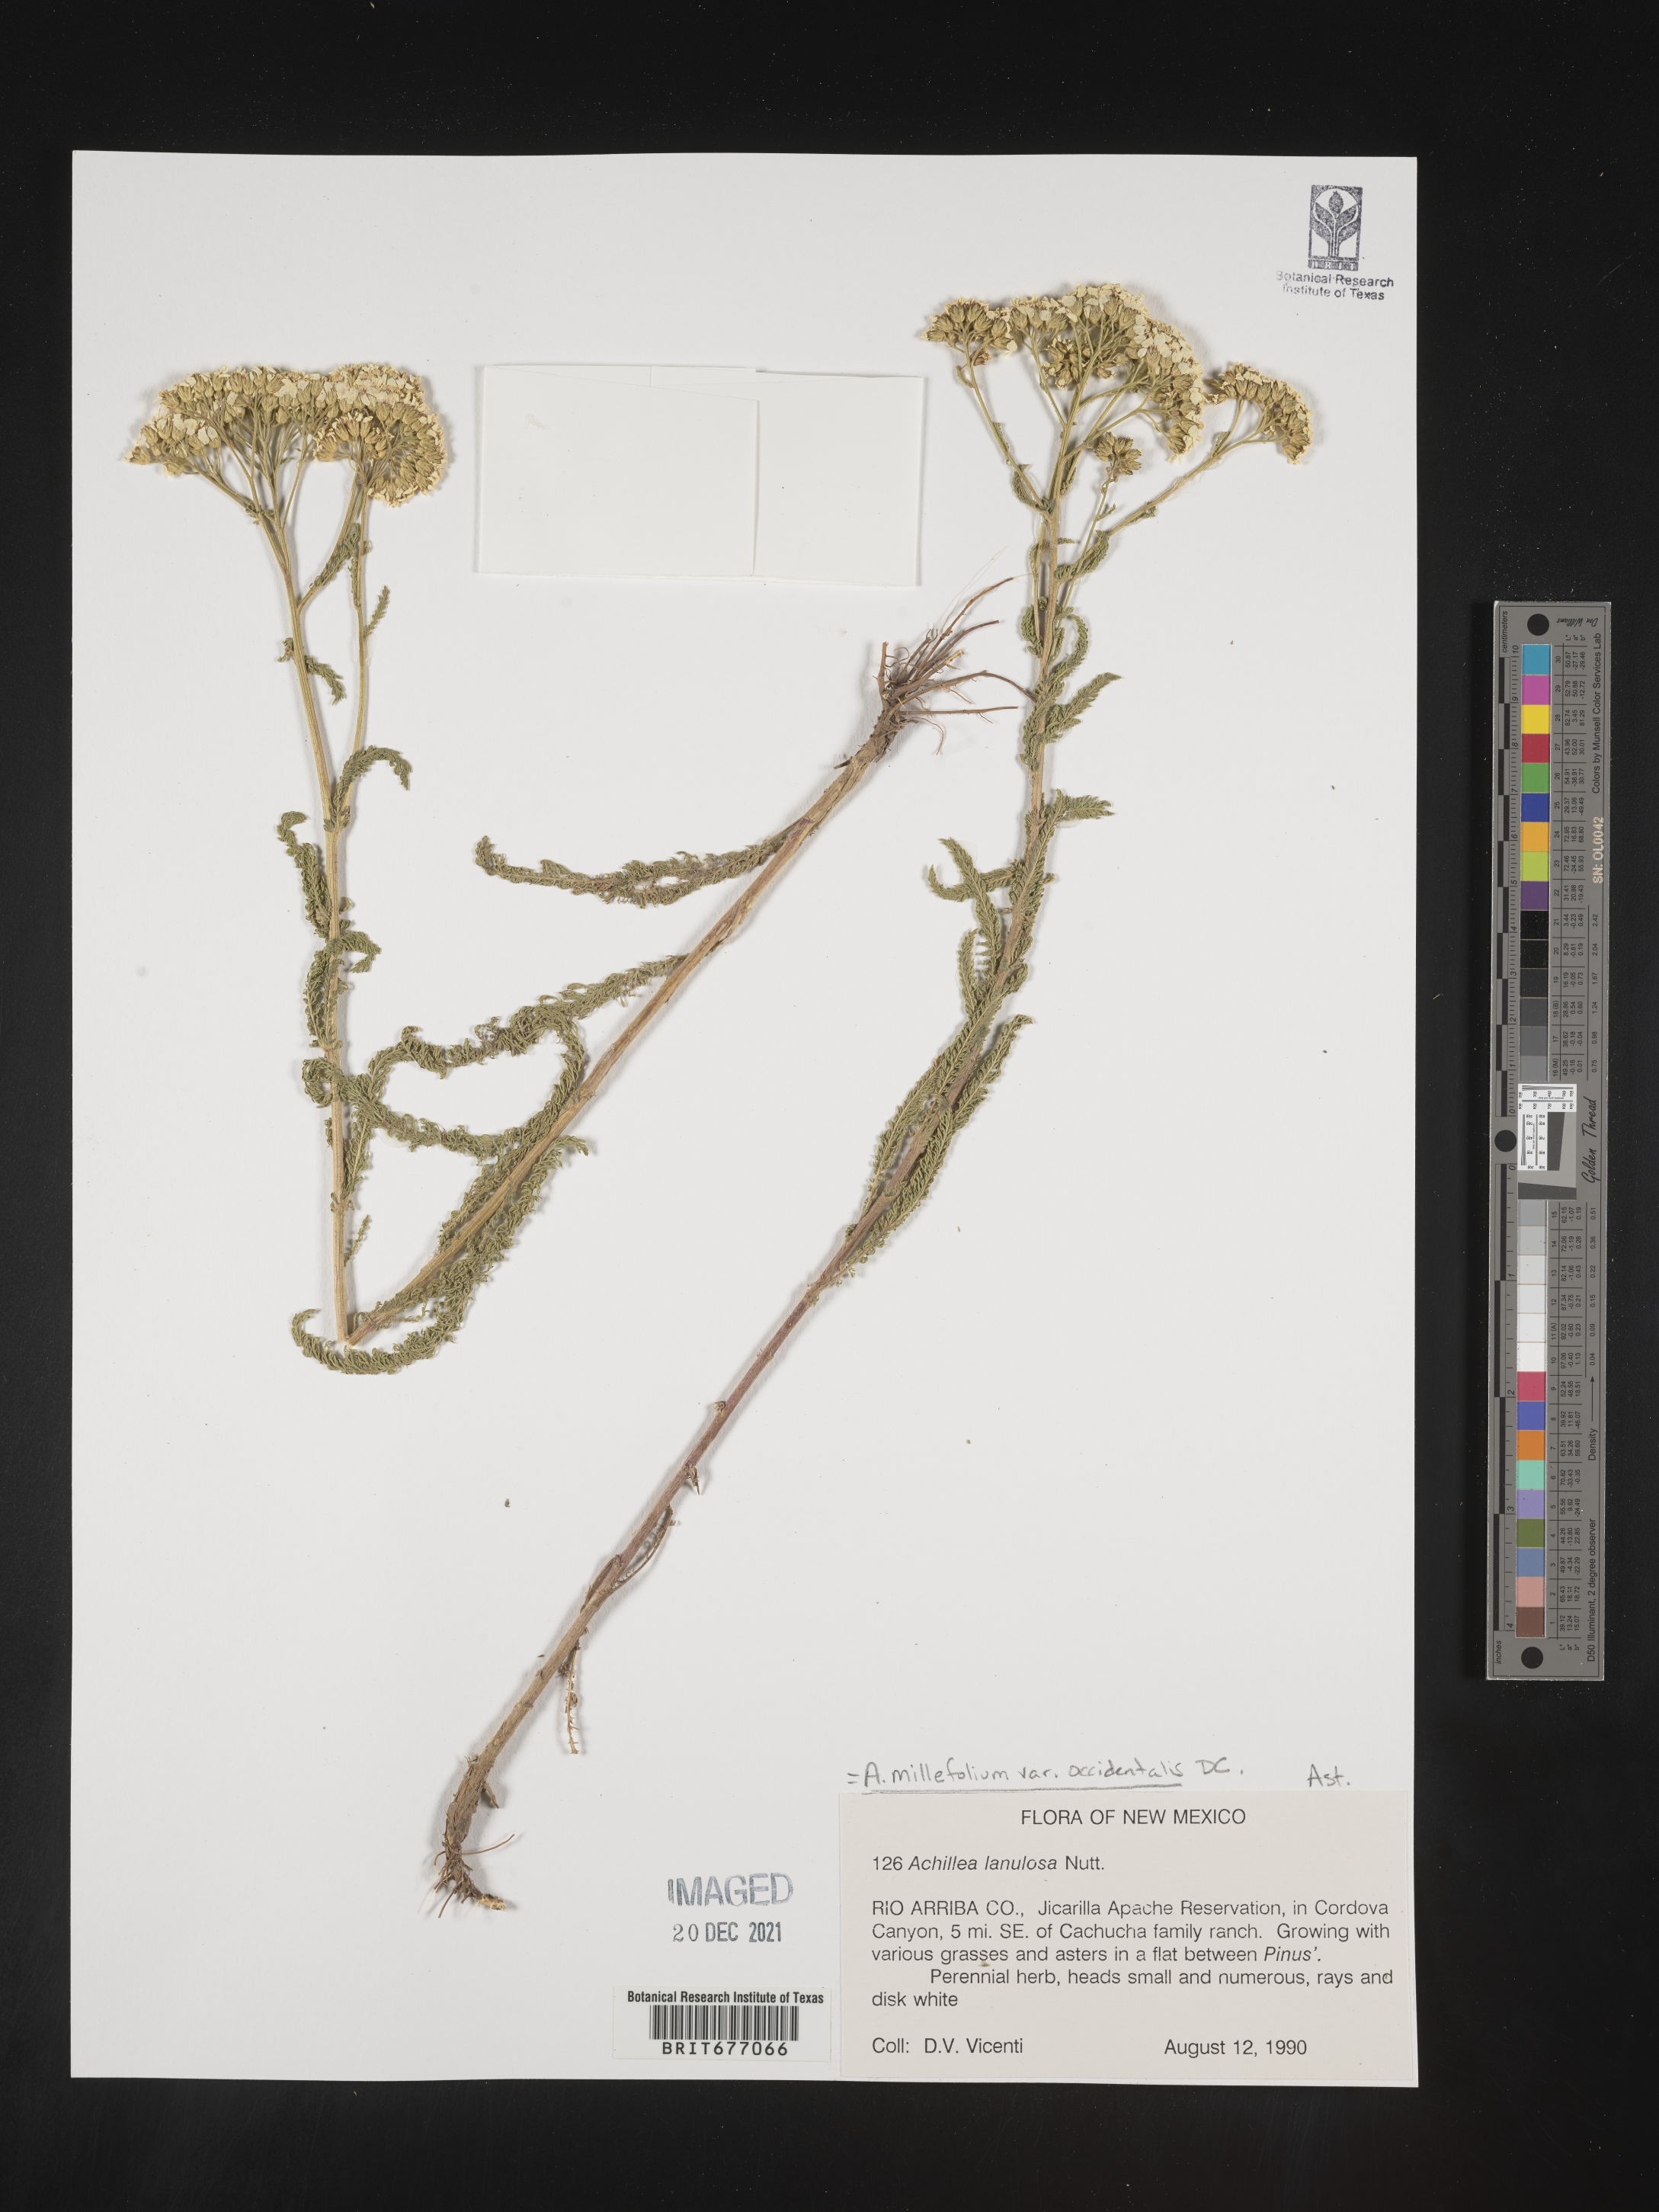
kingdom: Plantae
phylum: Tracheophyta
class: Magnoliopsida
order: Asterales
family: Asteraceae
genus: Achillea
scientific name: Achillea millefolium
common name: Yarrow
